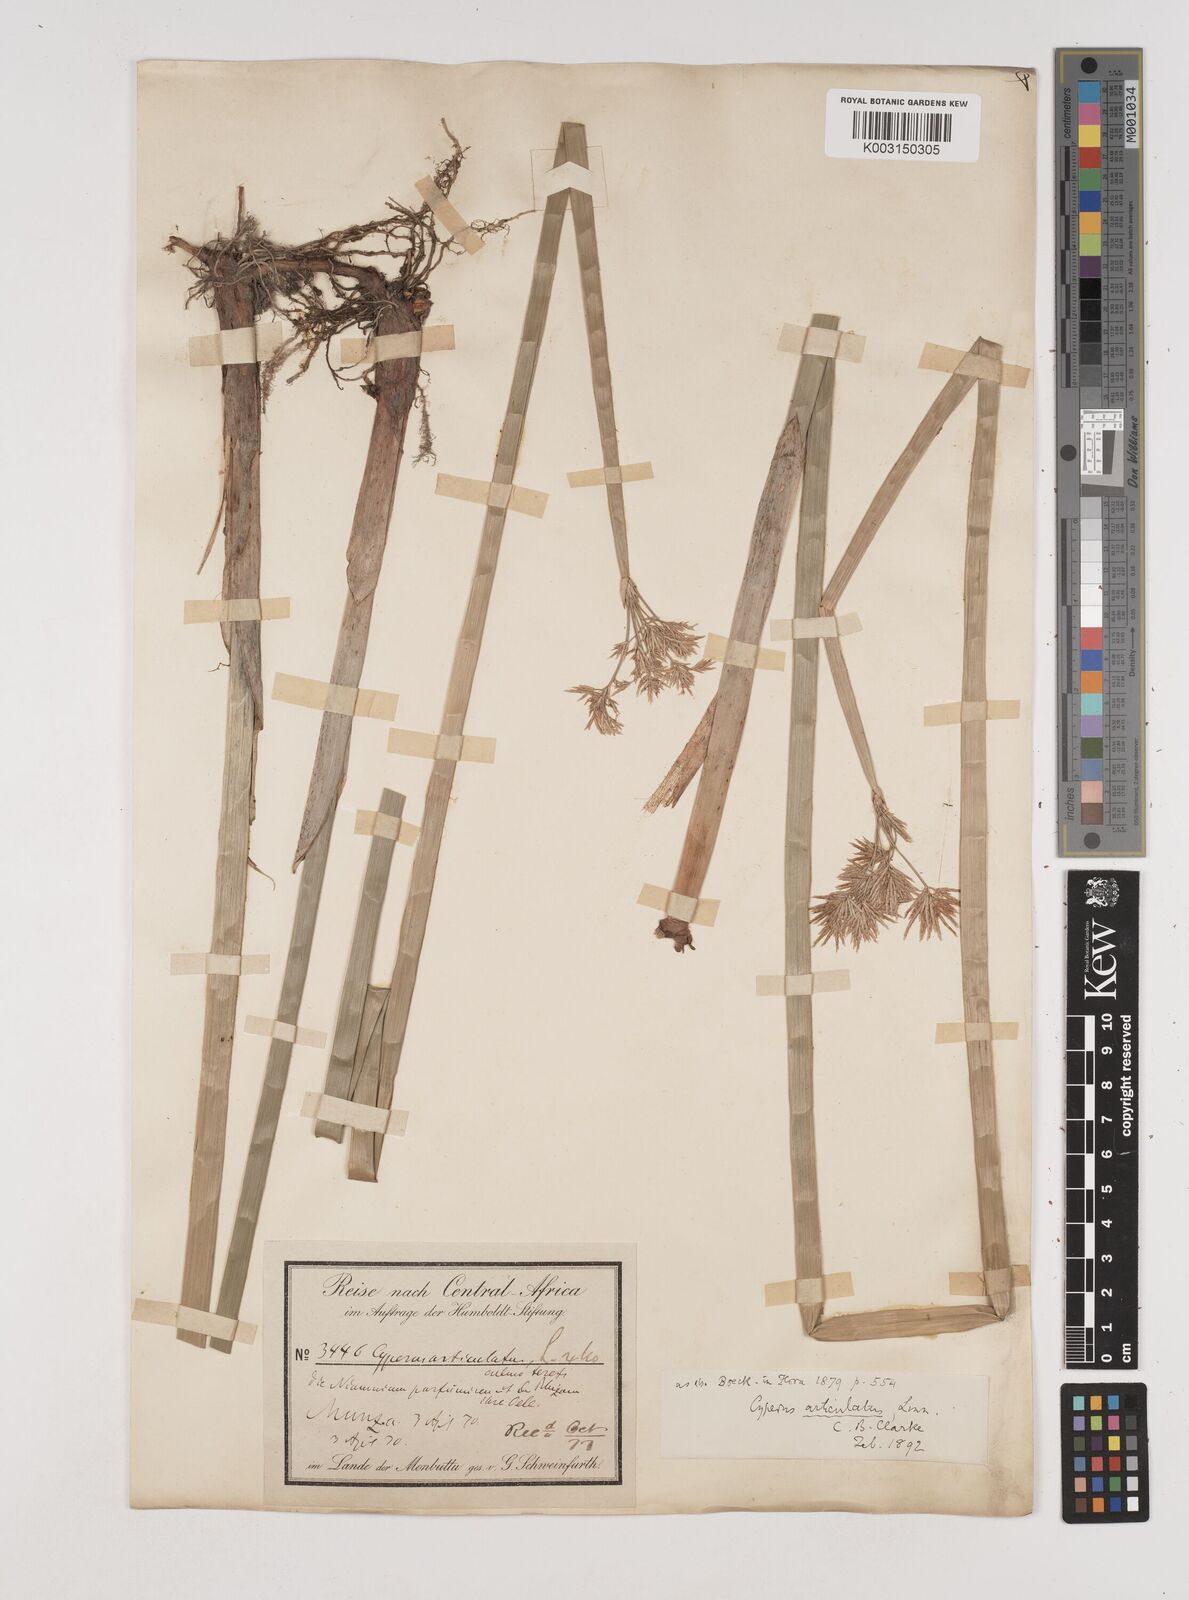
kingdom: Plantae
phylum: Tracheophyta
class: Liliopsida
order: Poales
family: Cyperaceae
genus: Cyperus
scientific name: Cyperus articulatus
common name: Jointed flatsedge
